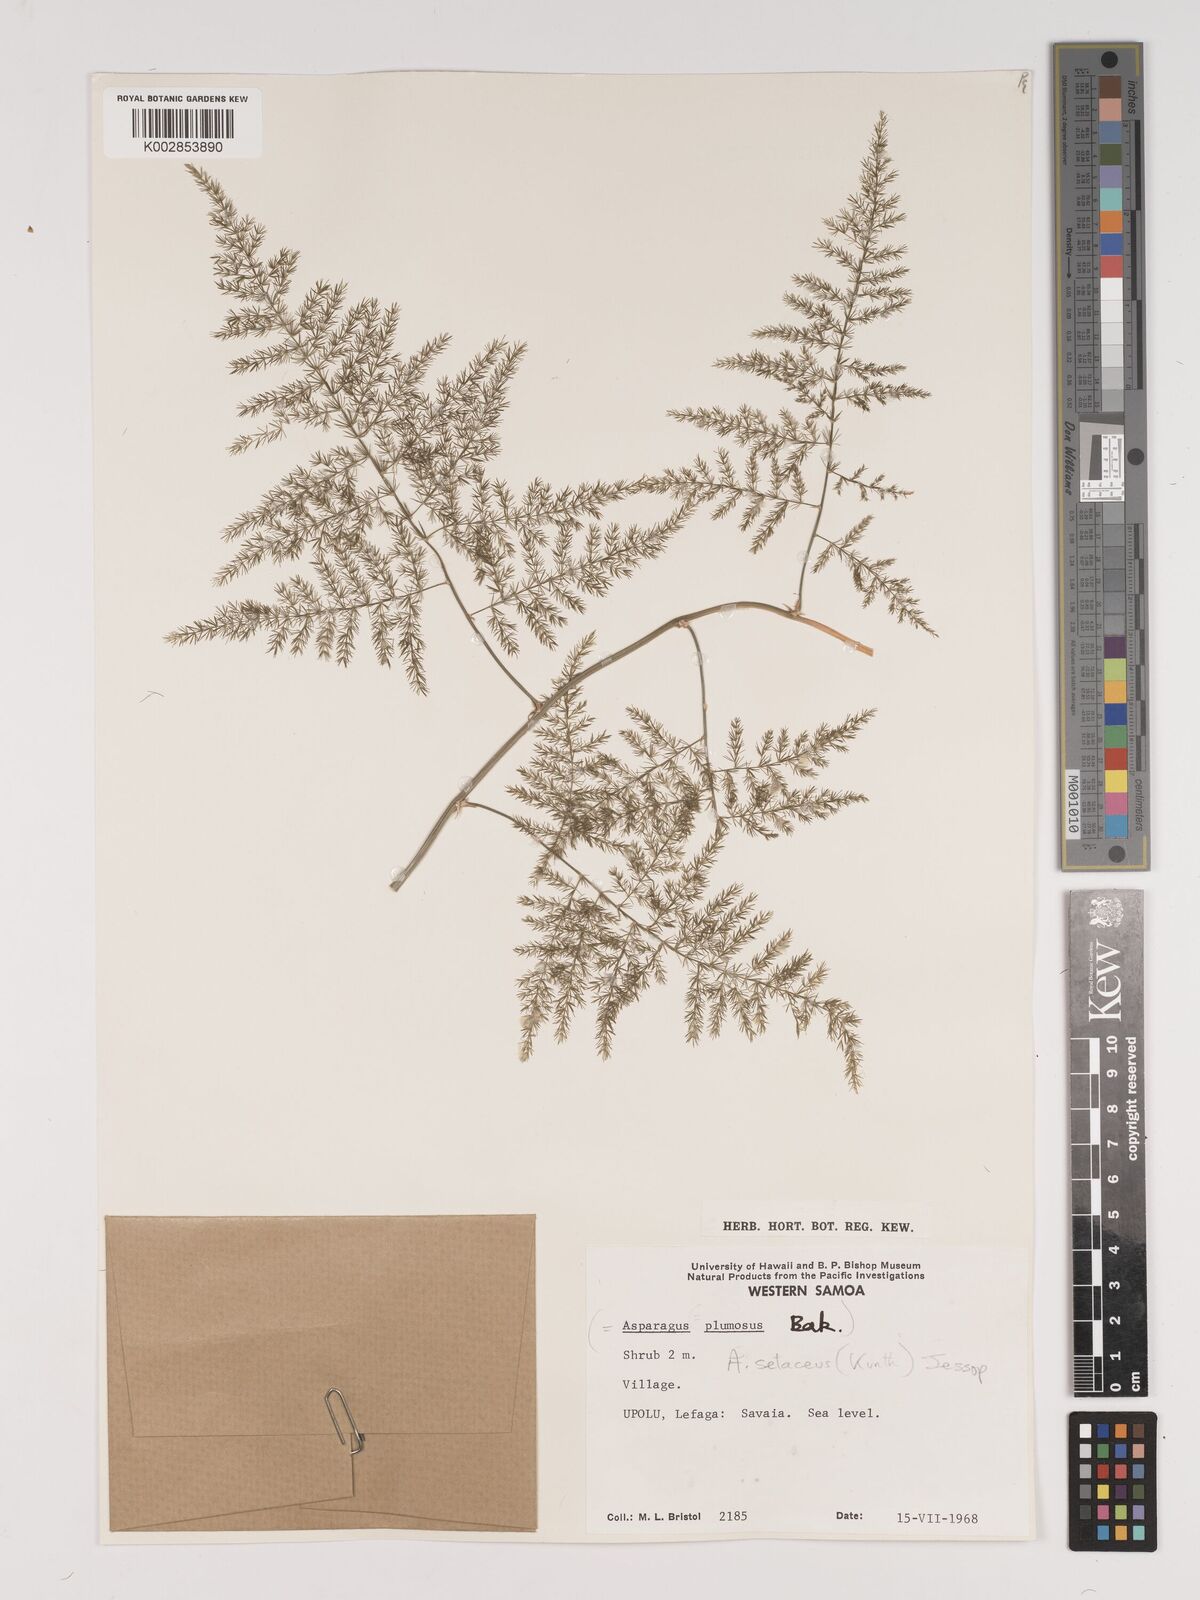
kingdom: Plantae
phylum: Tracheophyta
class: Liliopsida
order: Asparagales
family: Asparagaceae
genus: Asparagus
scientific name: Asparagus setaceus
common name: Common asparagus fern
